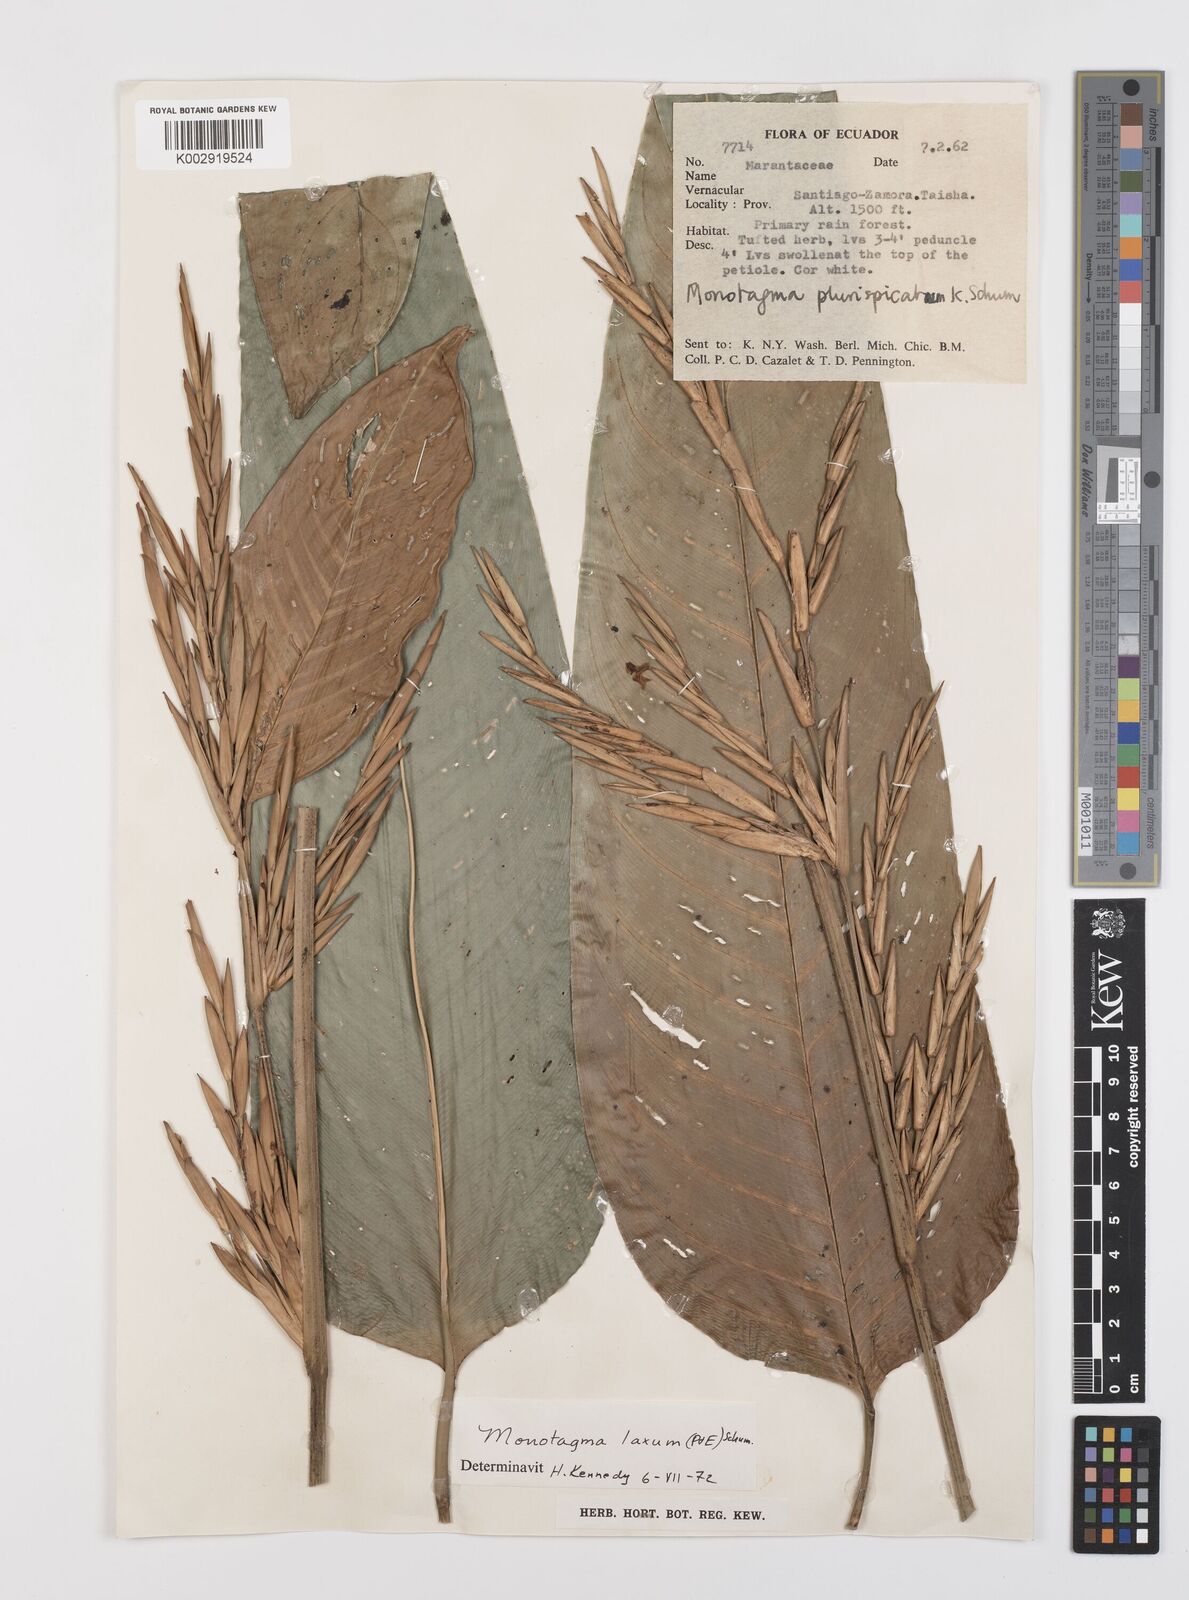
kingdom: Plantae
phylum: Tracheophyta
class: Liliopsida
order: Zingiberales
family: Marantaceae
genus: Monotagma
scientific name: Monotagma laxum
